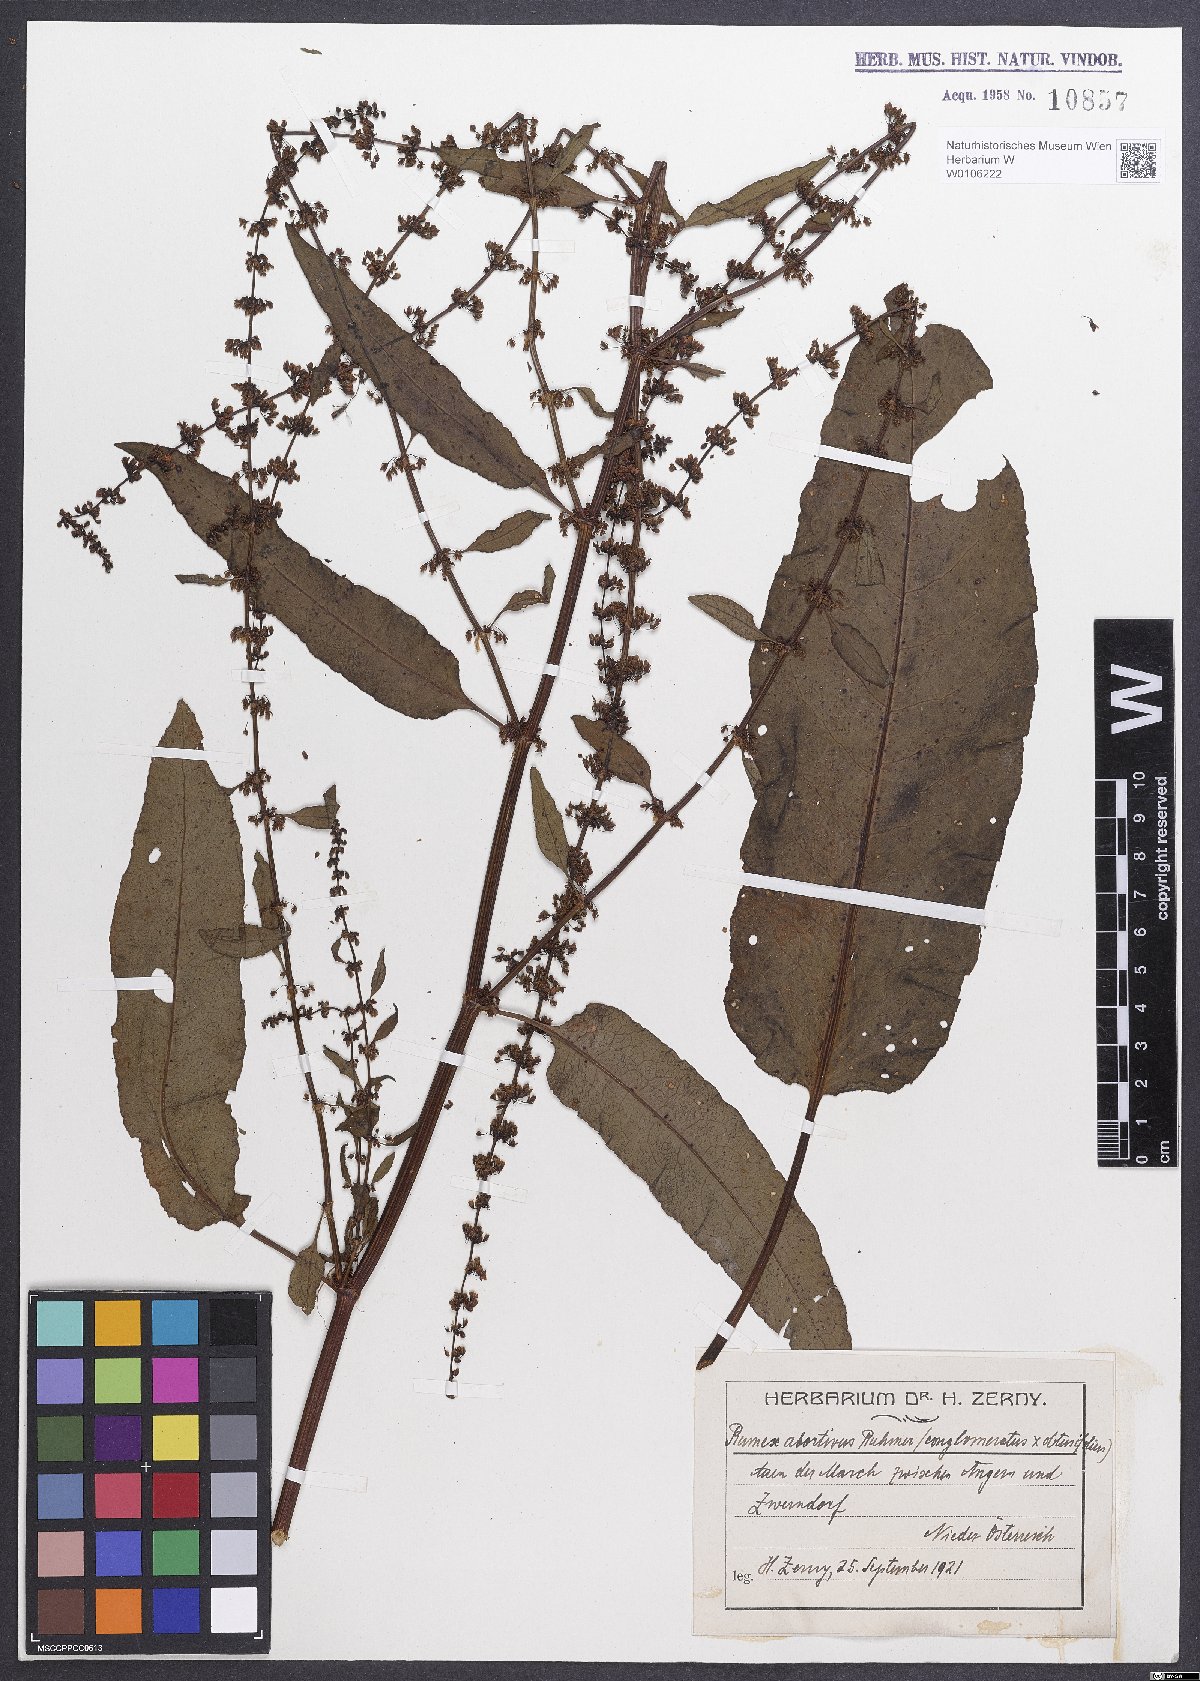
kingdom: Plantae
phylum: Tracheophyta
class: Magnoliopsida
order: Caryophyllales
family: Polygonaceae
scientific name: Polygonaceae
